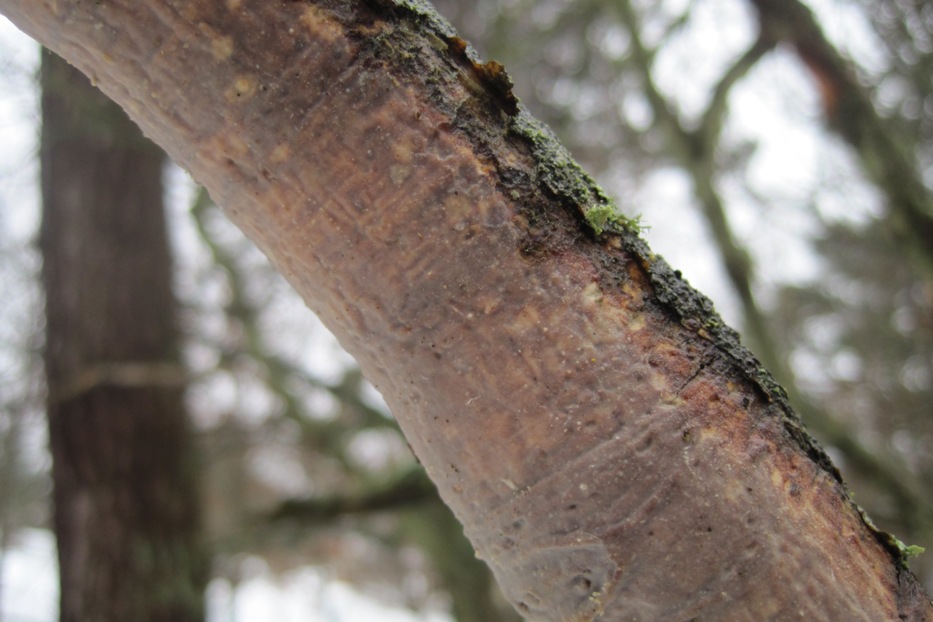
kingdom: Fungi
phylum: Basidiomycota
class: Agaricomycetes
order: Corticiales
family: Vuilleminiaceae
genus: Vuilleminia
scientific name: Vuilleminia comedens
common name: almindelig barksprænger
